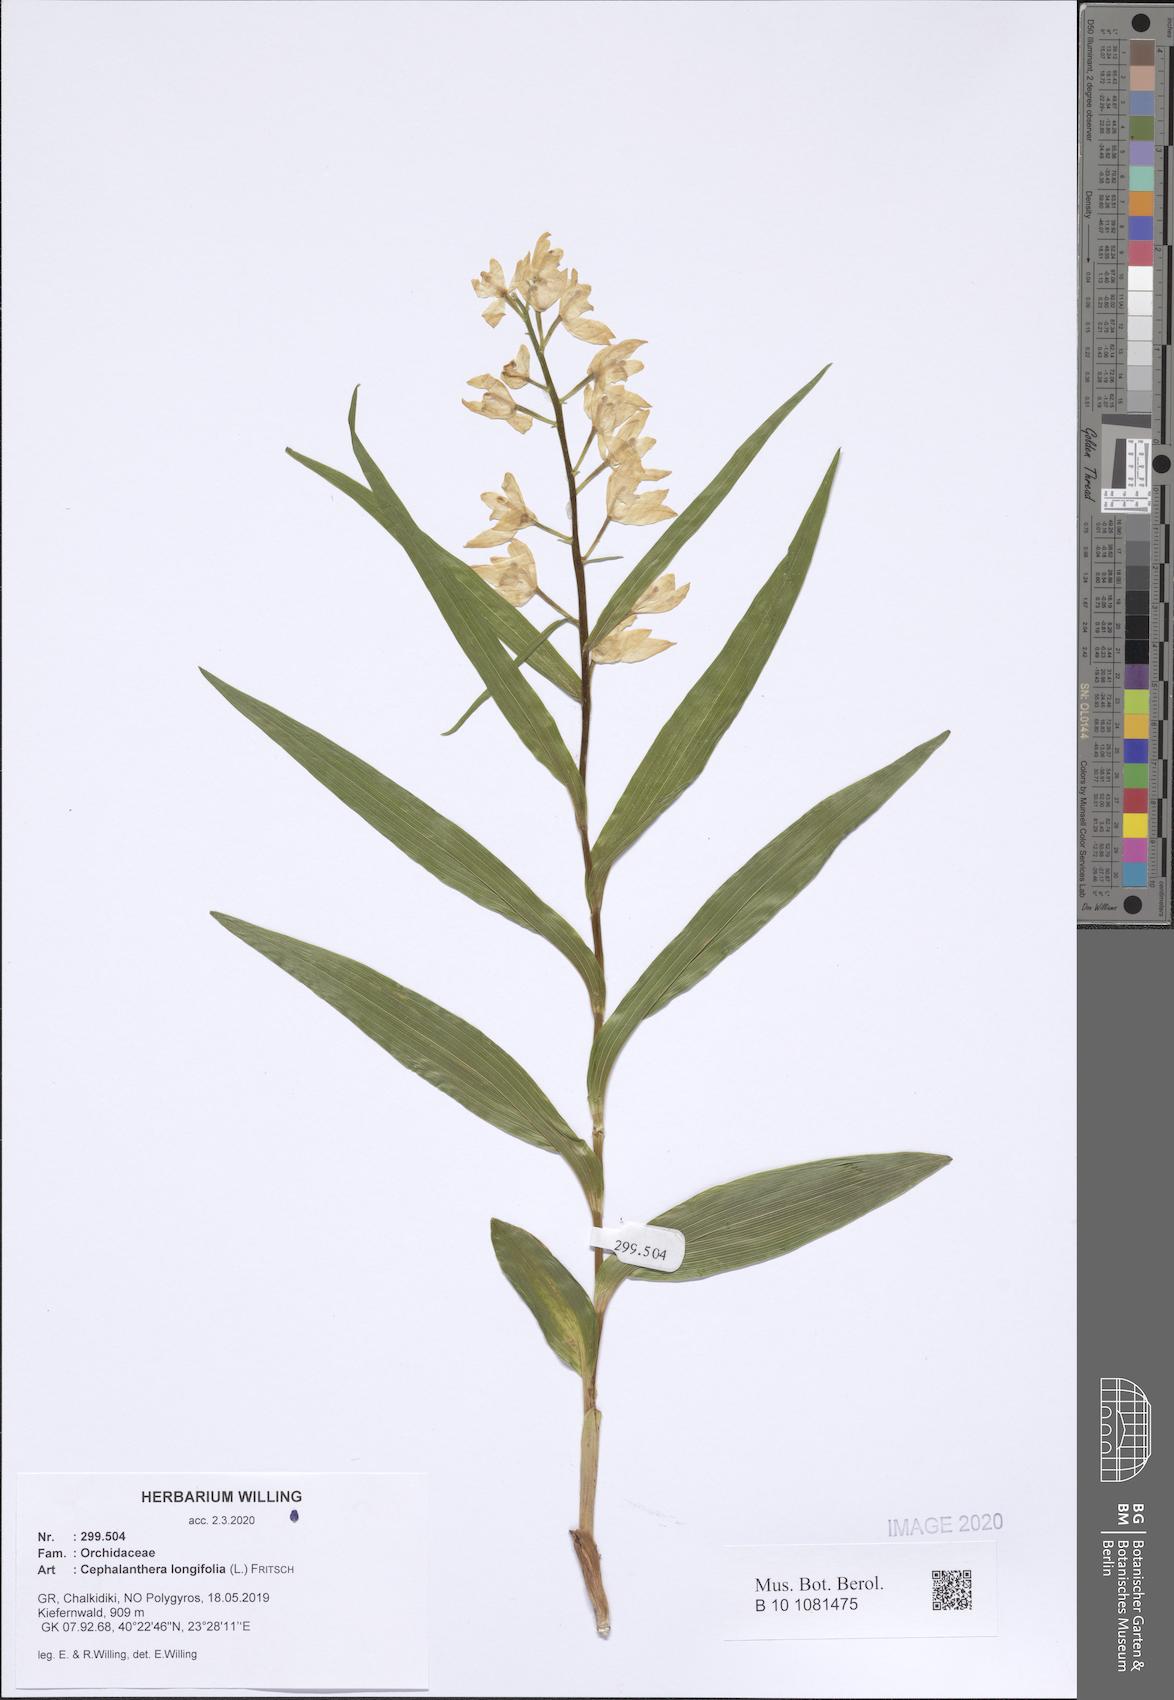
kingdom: Plantae
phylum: Tracheophyta
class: Liliopsida
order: Asparagales
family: Orchidaceae
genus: Cephalanthera
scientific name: Cephalanthera longifolia
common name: Narrow-leaved helleborine
